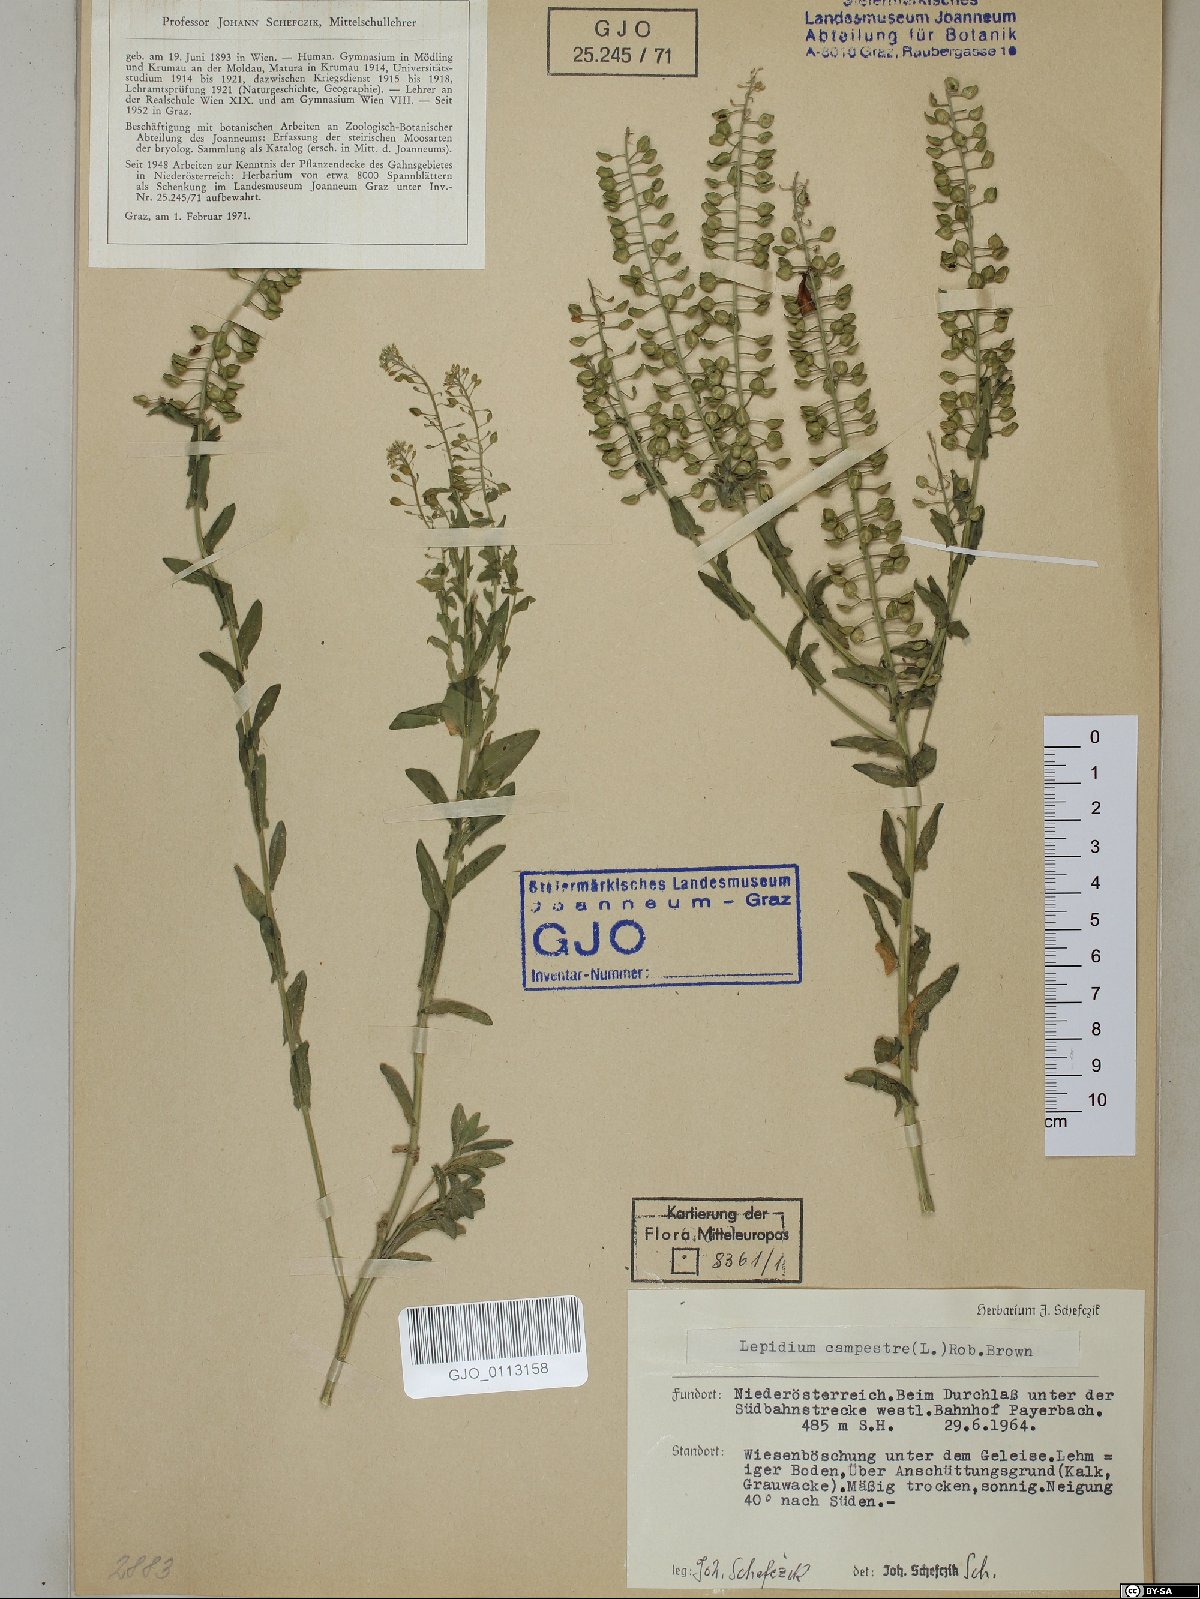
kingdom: Plantae
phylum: Tracheophyta
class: Magnoliopsida
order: Brassicales
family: Brassicaceae
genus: Lepidium
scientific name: Lepidium campestre
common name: Field pepperwort
